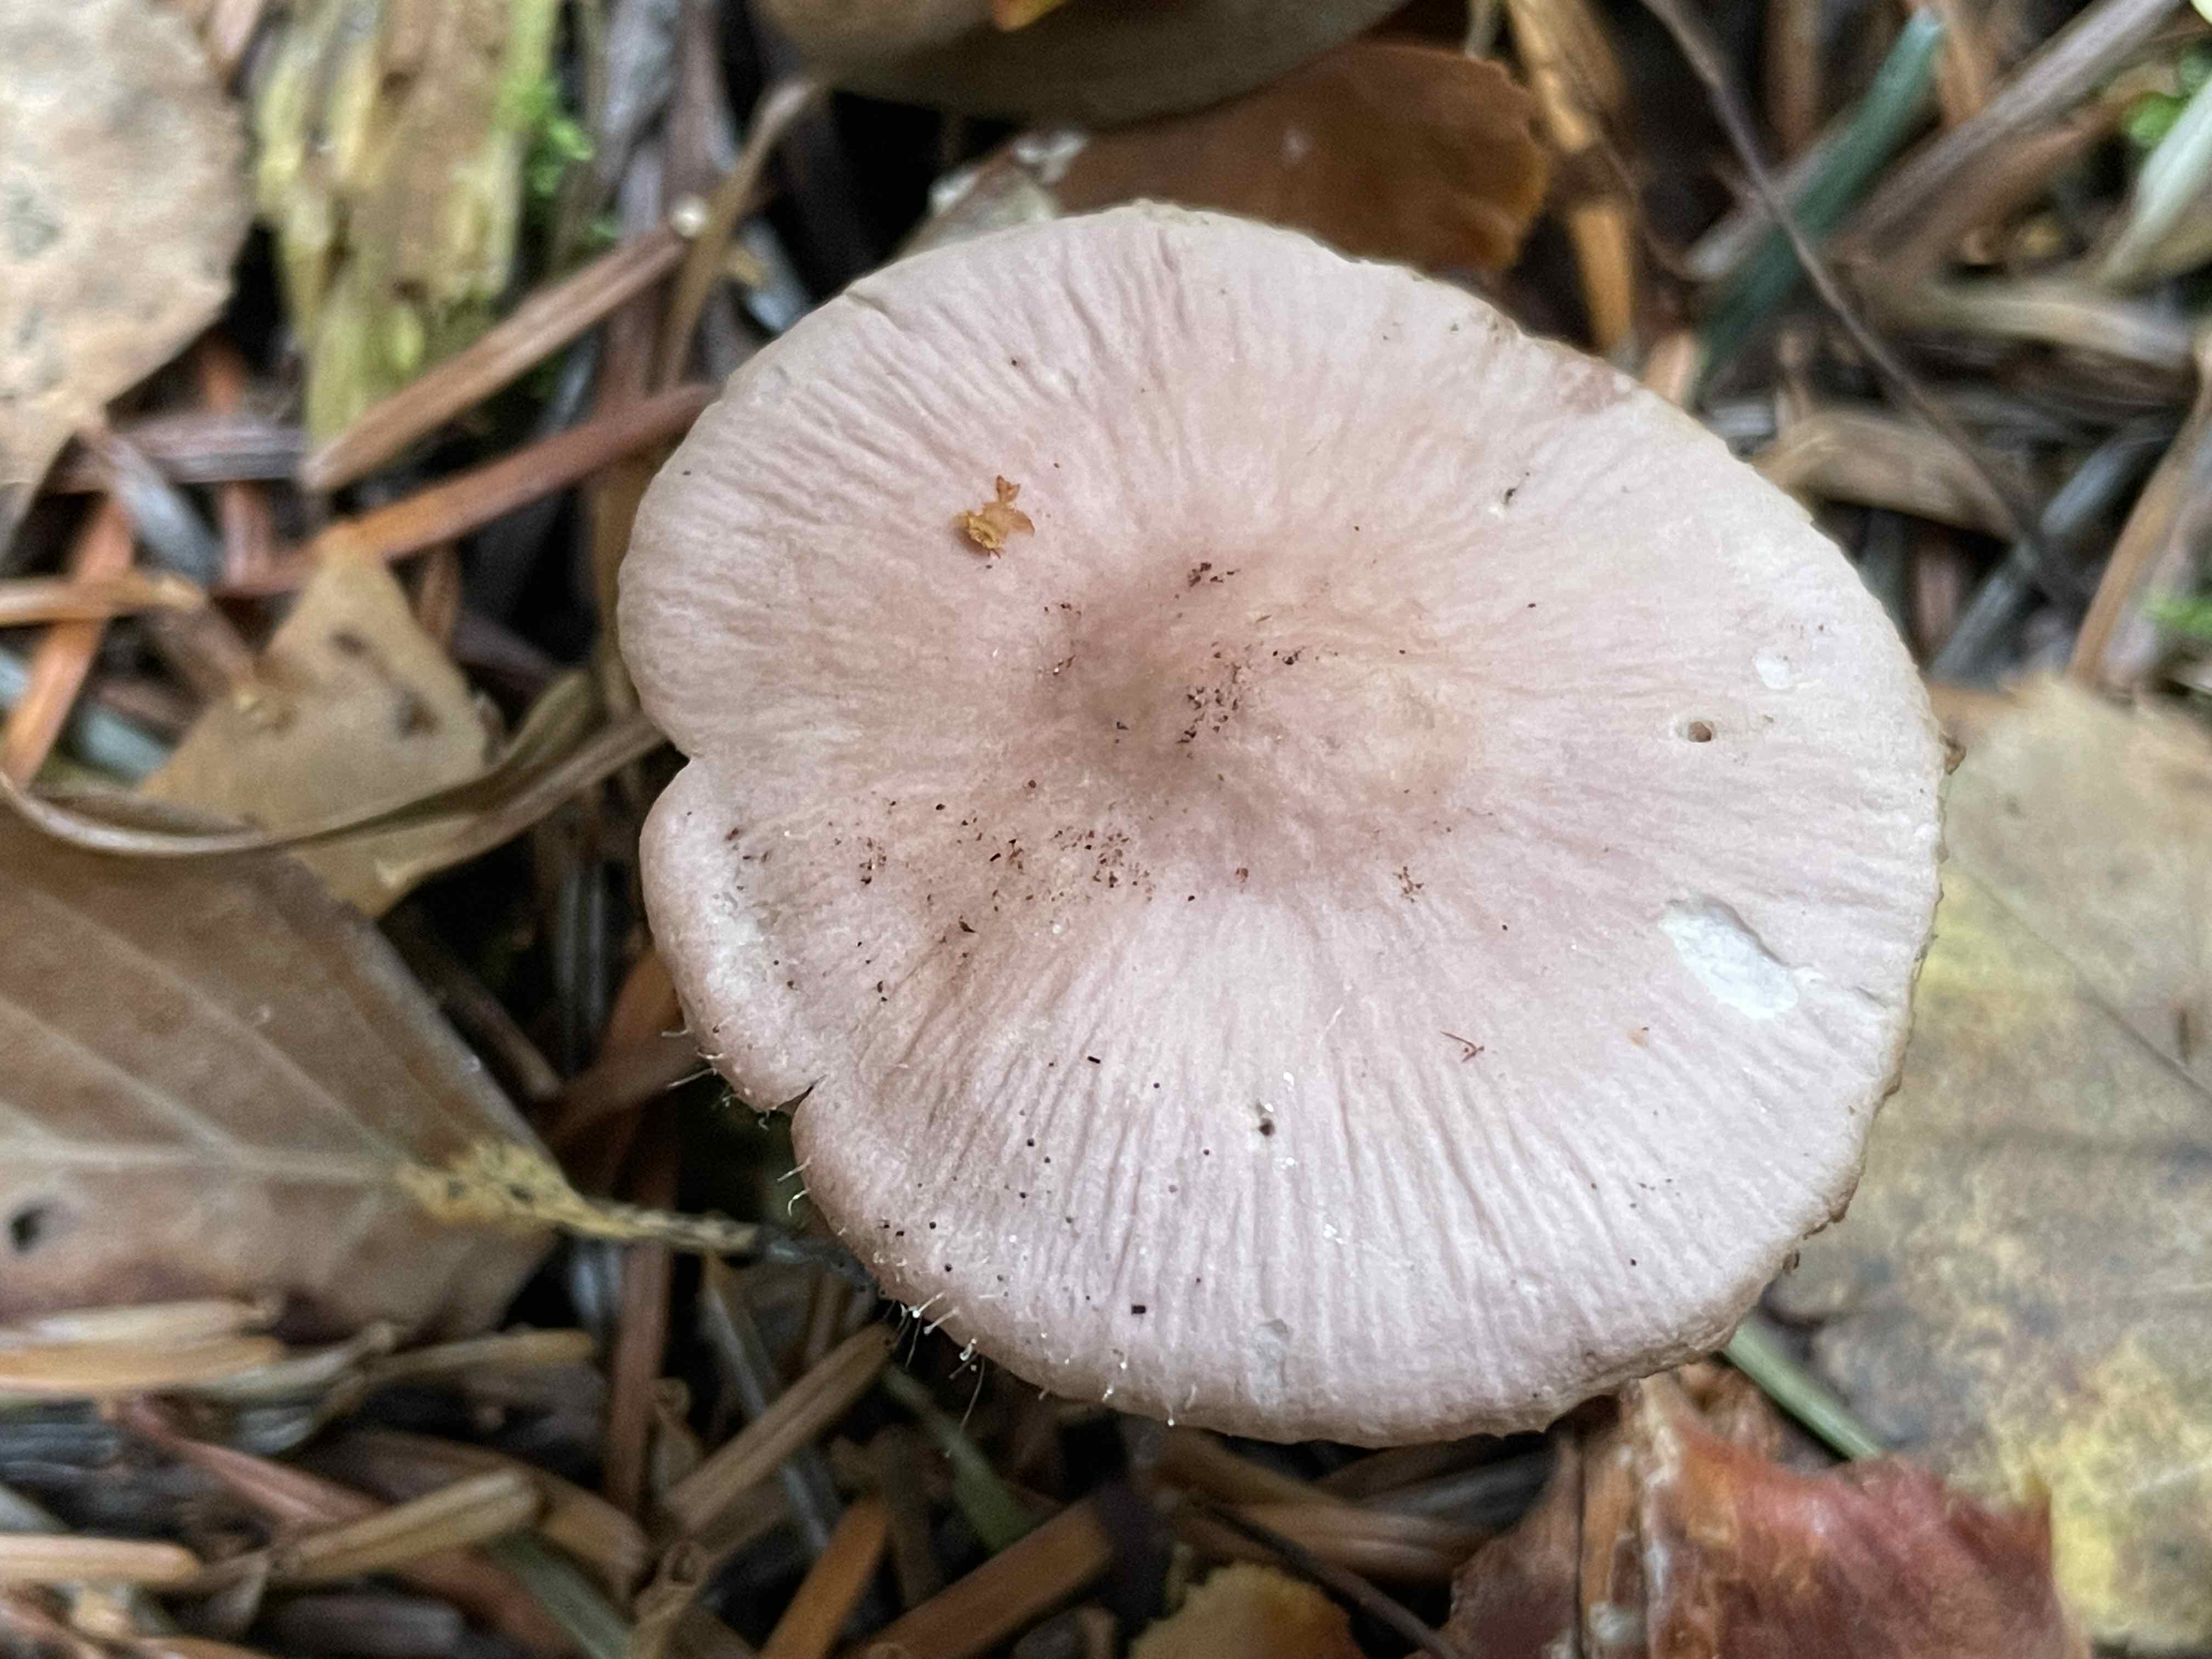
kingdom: Fungi
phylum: Basidiomycota
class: Agaricomycetes
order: Agaricales
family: Mycenaceae
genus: Mycena
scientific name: Mycena rosea
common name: rosa huesvamp
